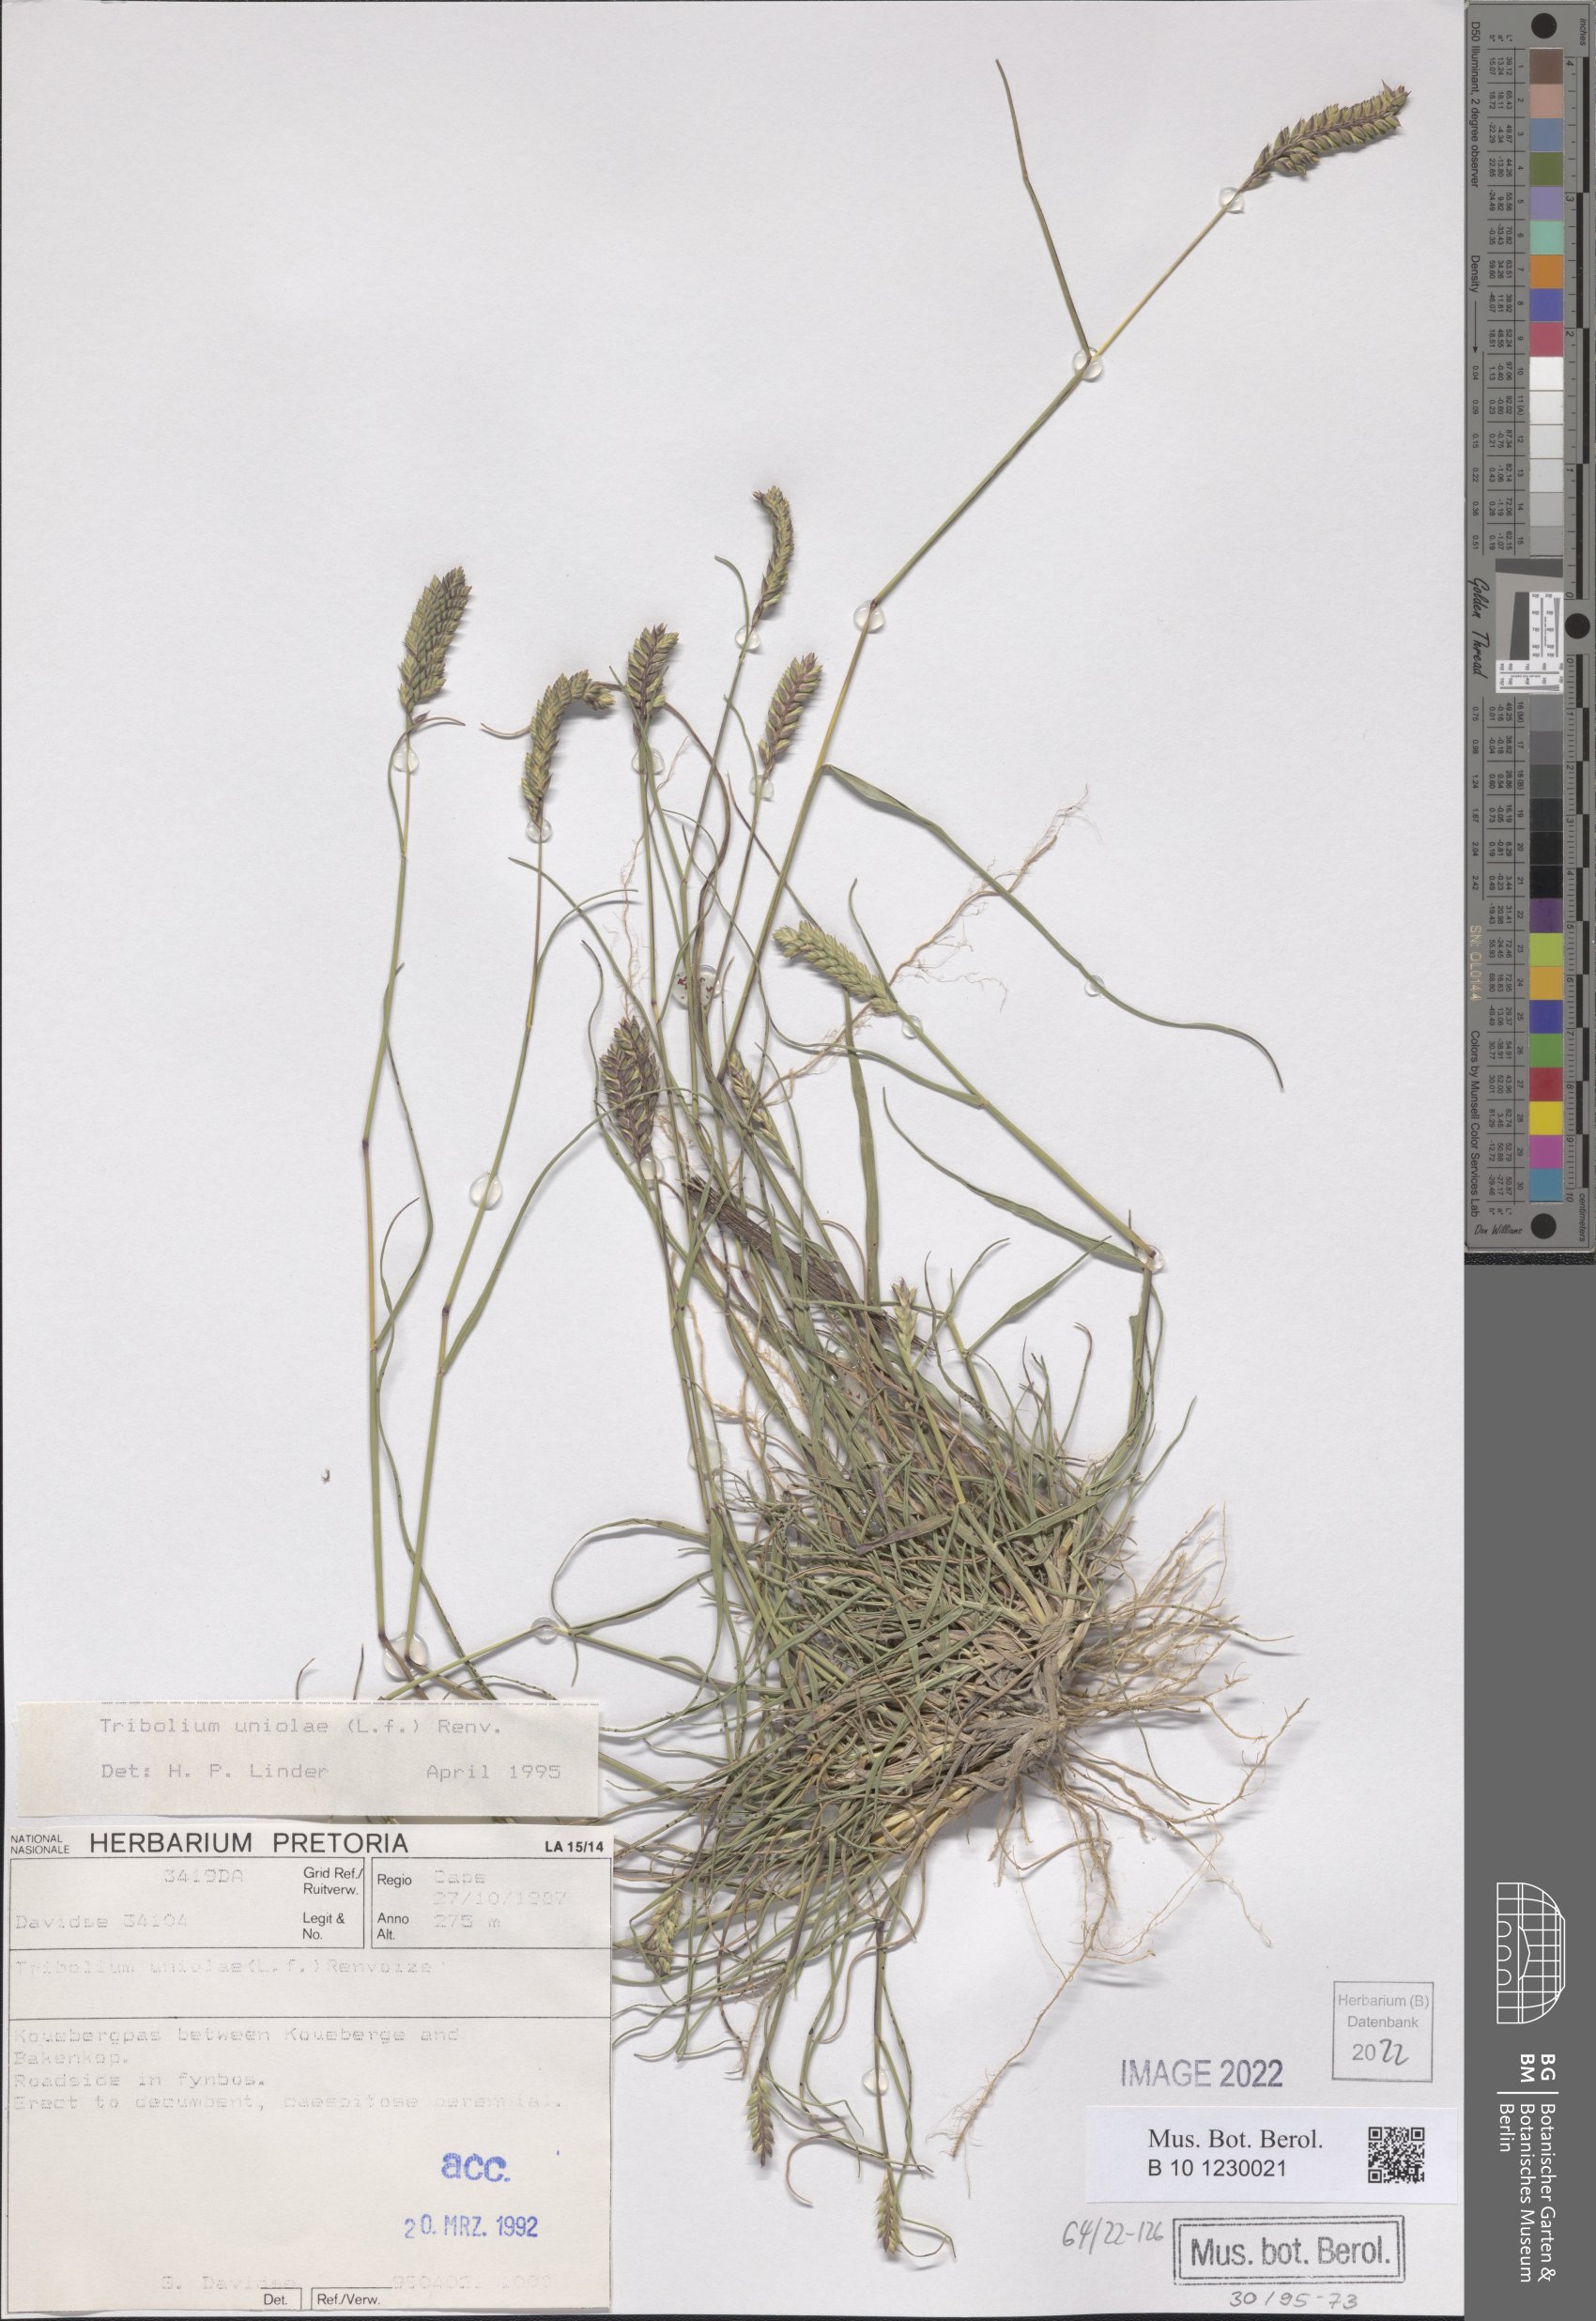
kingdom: Plantae
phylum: Tracheophyta
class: Liliopsida
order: Poales
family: Poaceae
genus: Tribolium
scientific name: Tribolium uniolae
